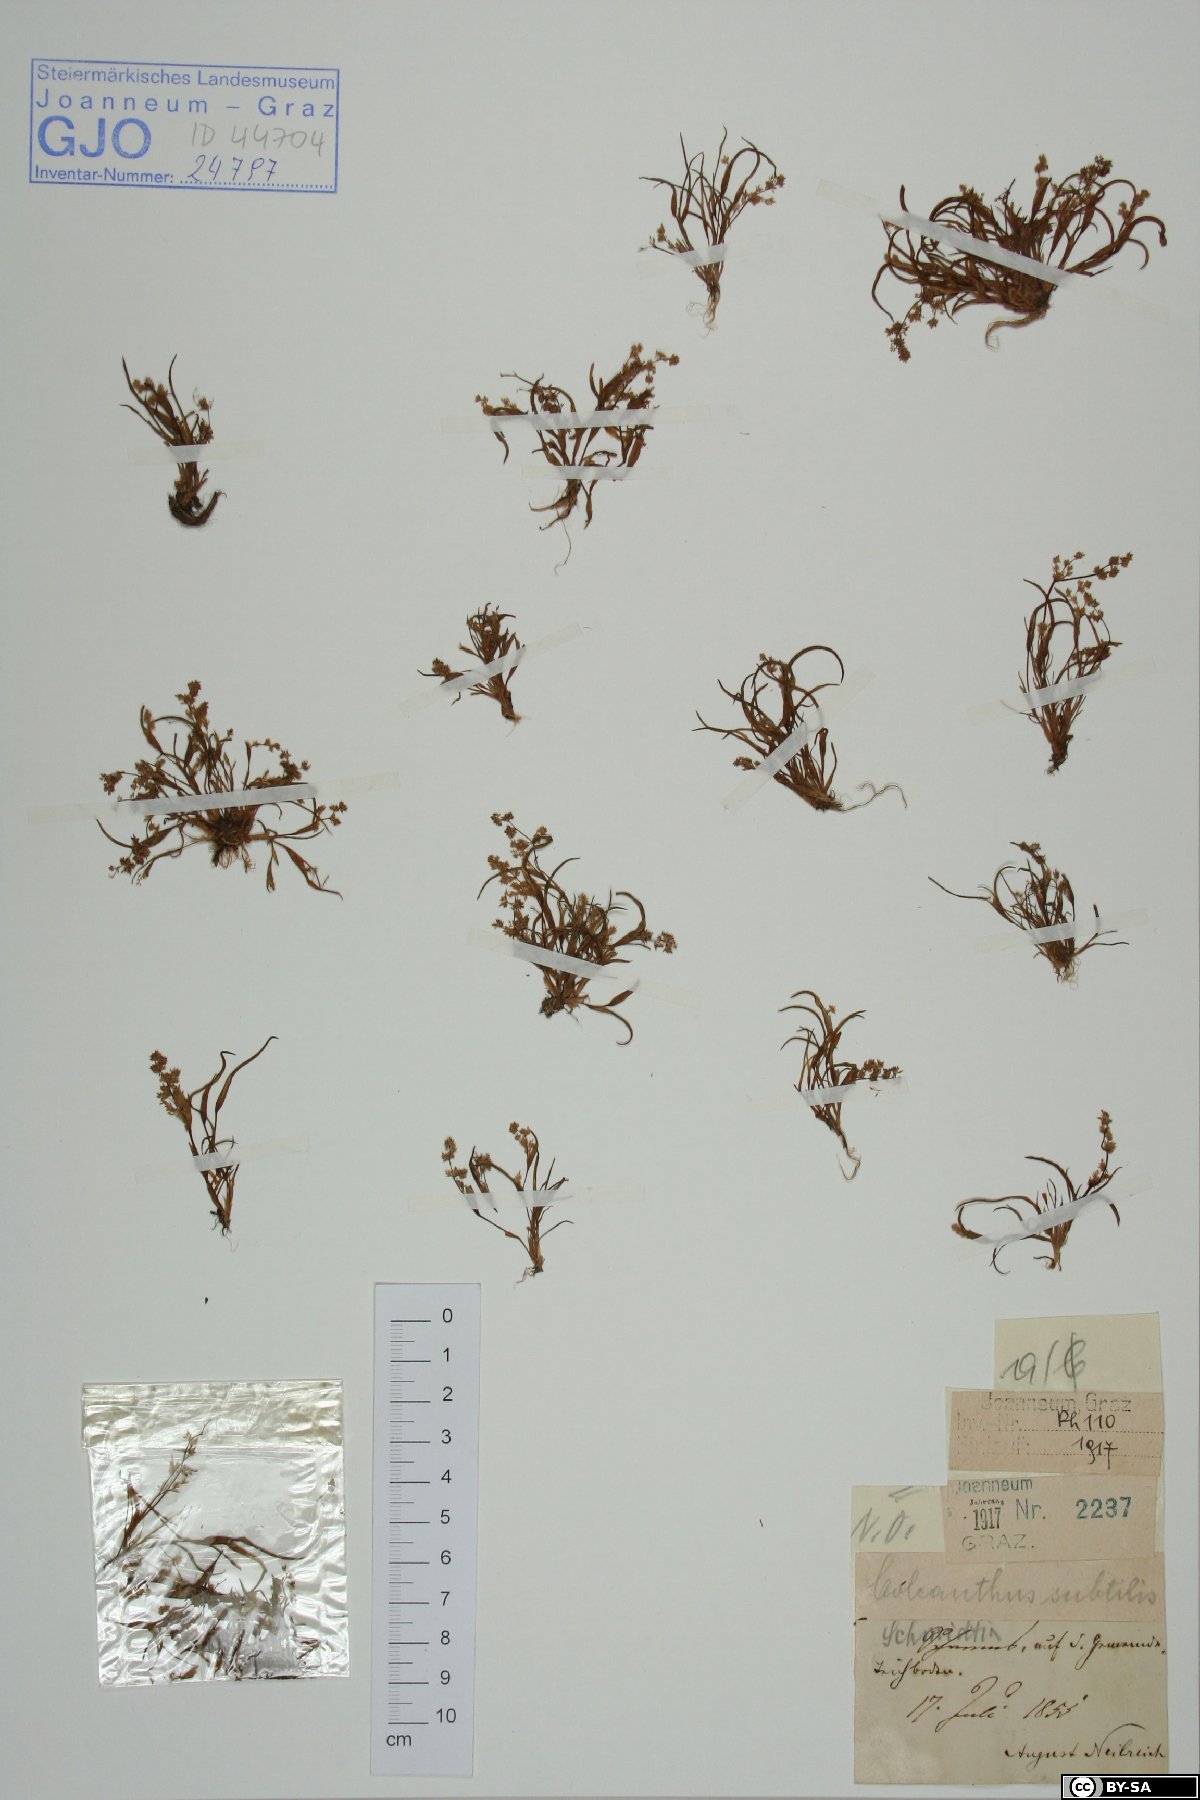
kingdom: Plantae
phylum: Tracheophyta
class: Liliopsida
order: Poales
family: Poaceae
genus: Coleanthus
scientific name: Coleanthus subtilis
